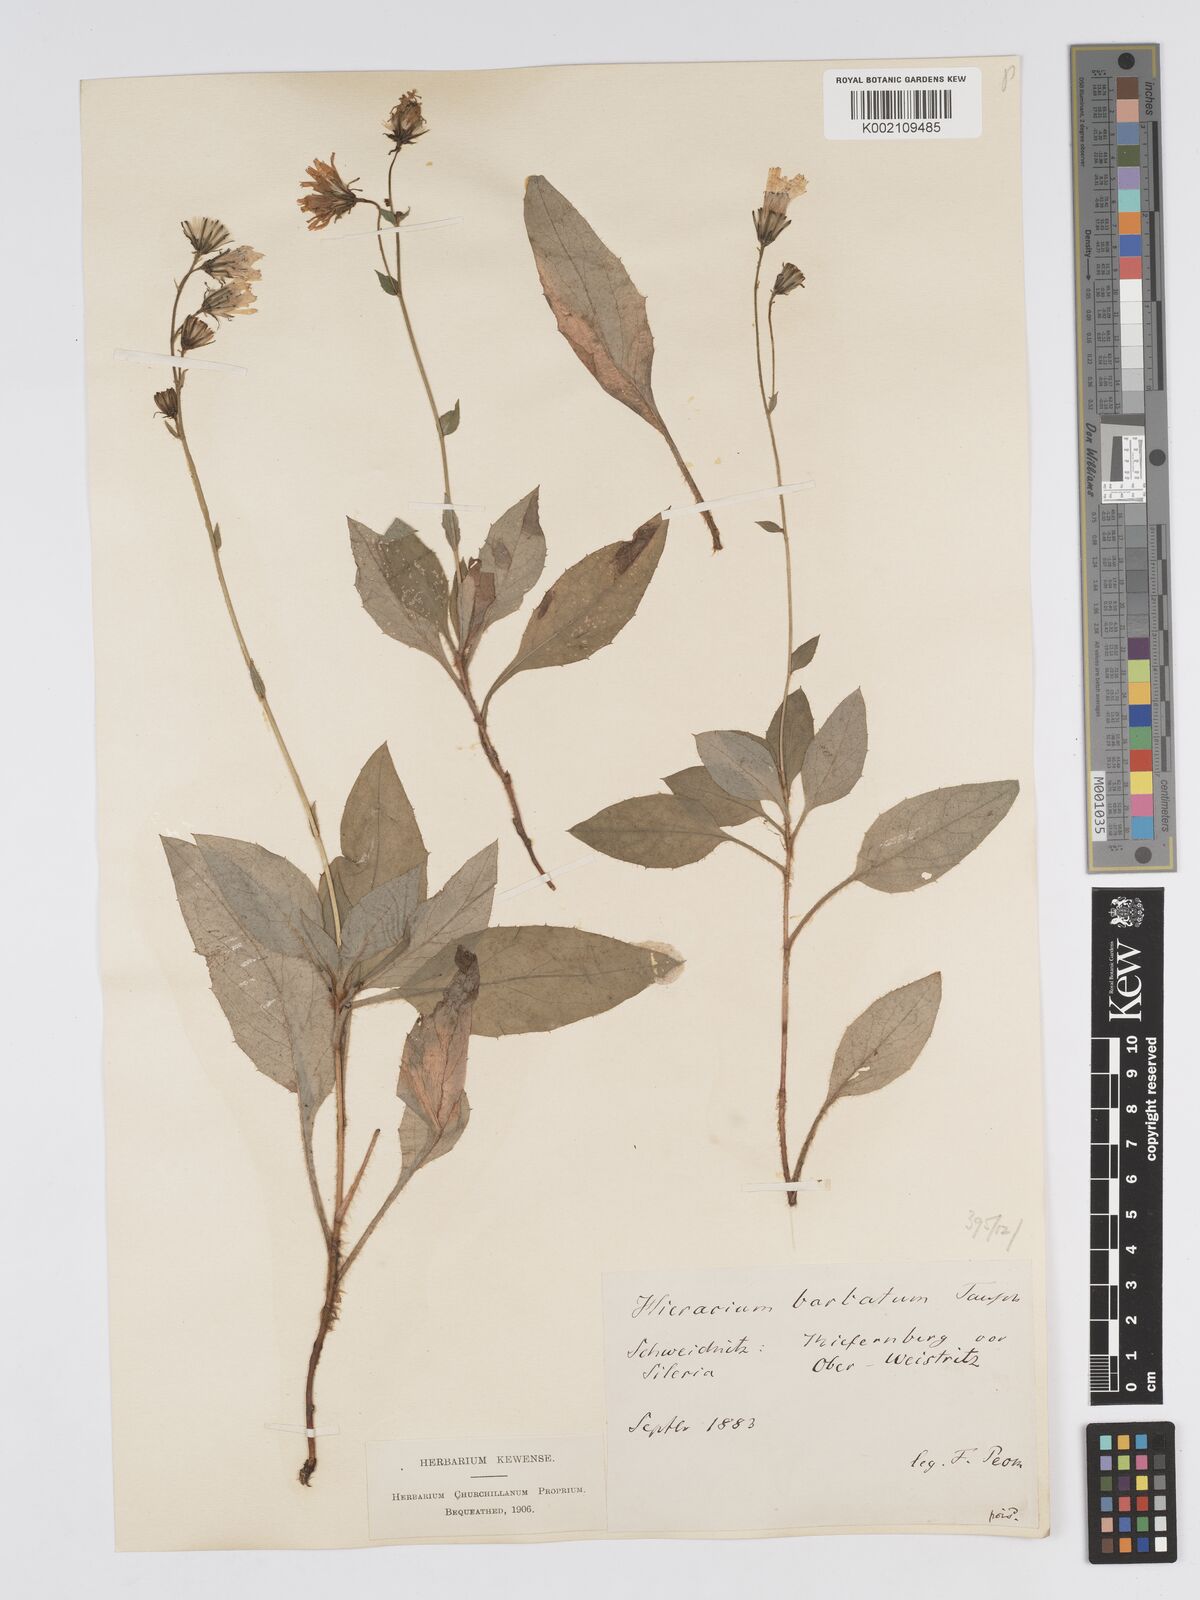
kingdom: Plantae
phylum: Tracheophyta
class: Magnoliopsida
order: Asterales
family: Asteraceae
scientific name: Asteraceae
